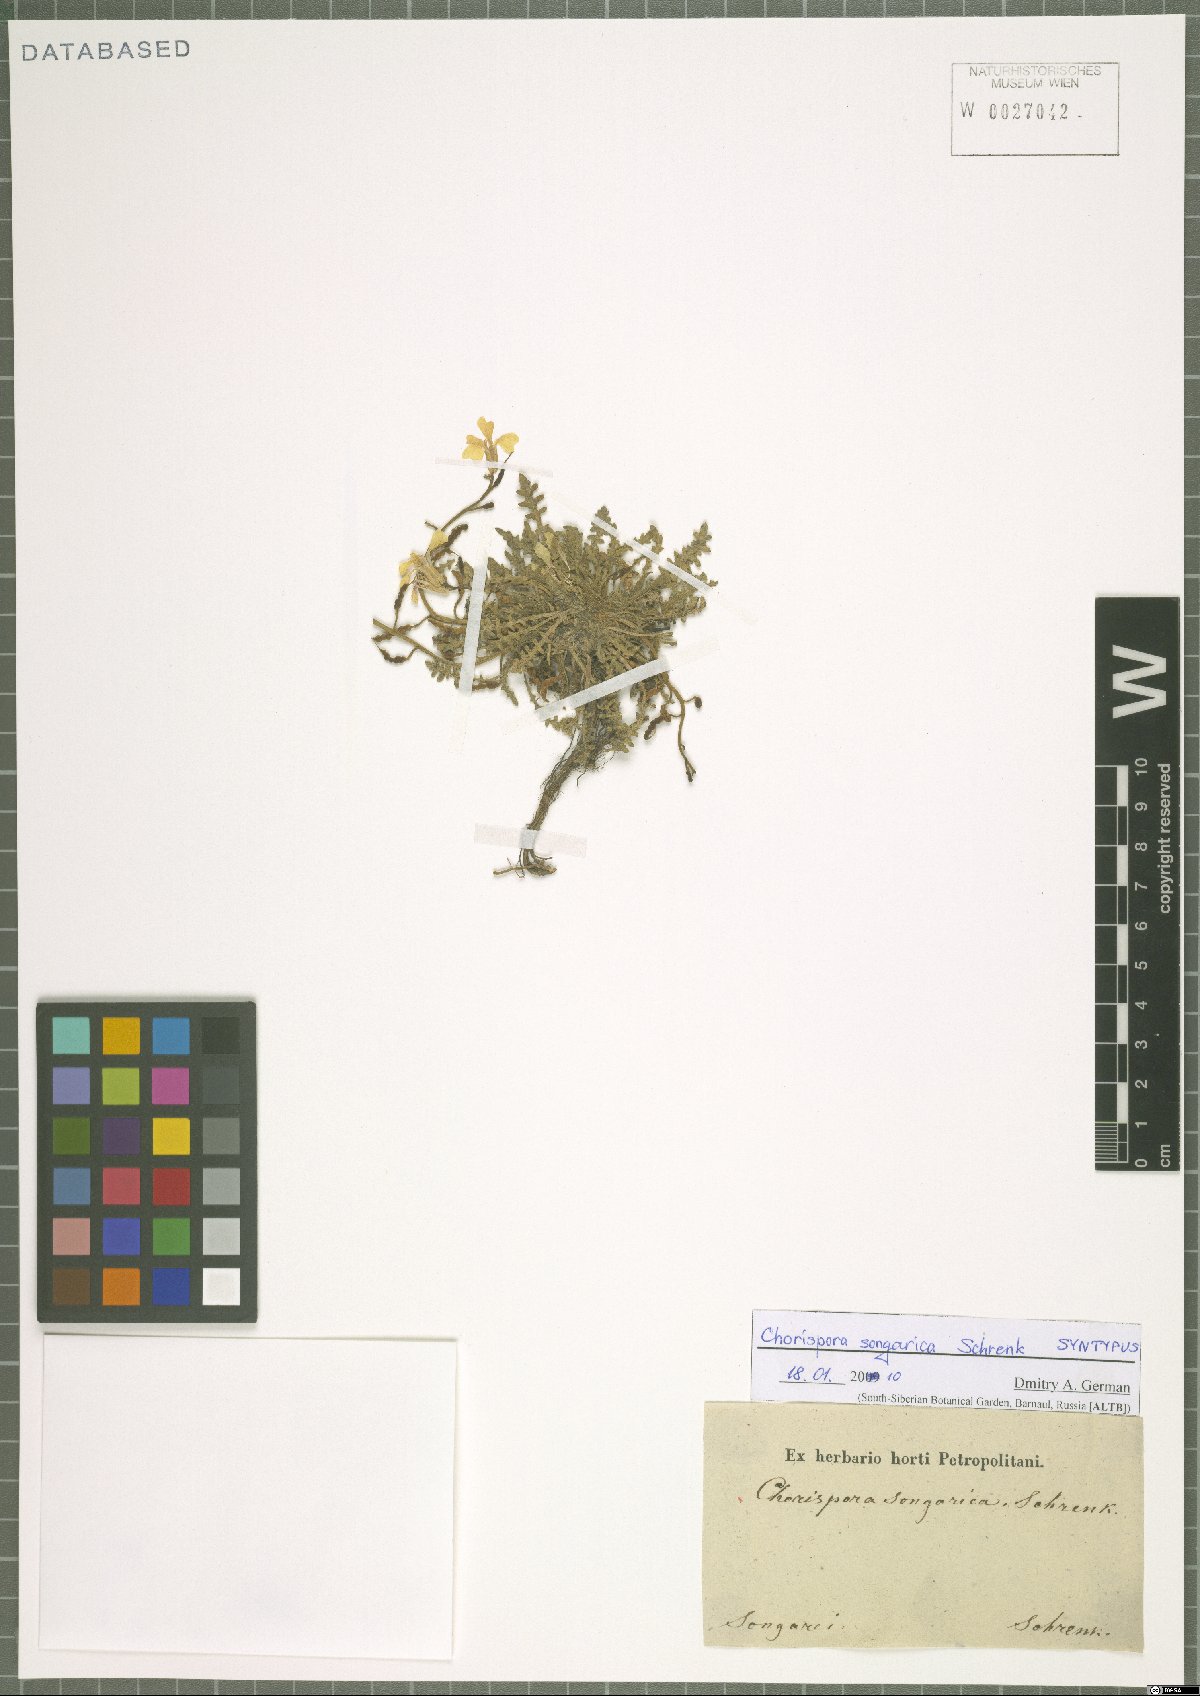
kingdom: Plantae
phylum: Tracheophyta
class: Magnoliopsida
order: Brassicales
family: Brassicaceae
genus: Chorispora
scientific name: Chorispora songarica
